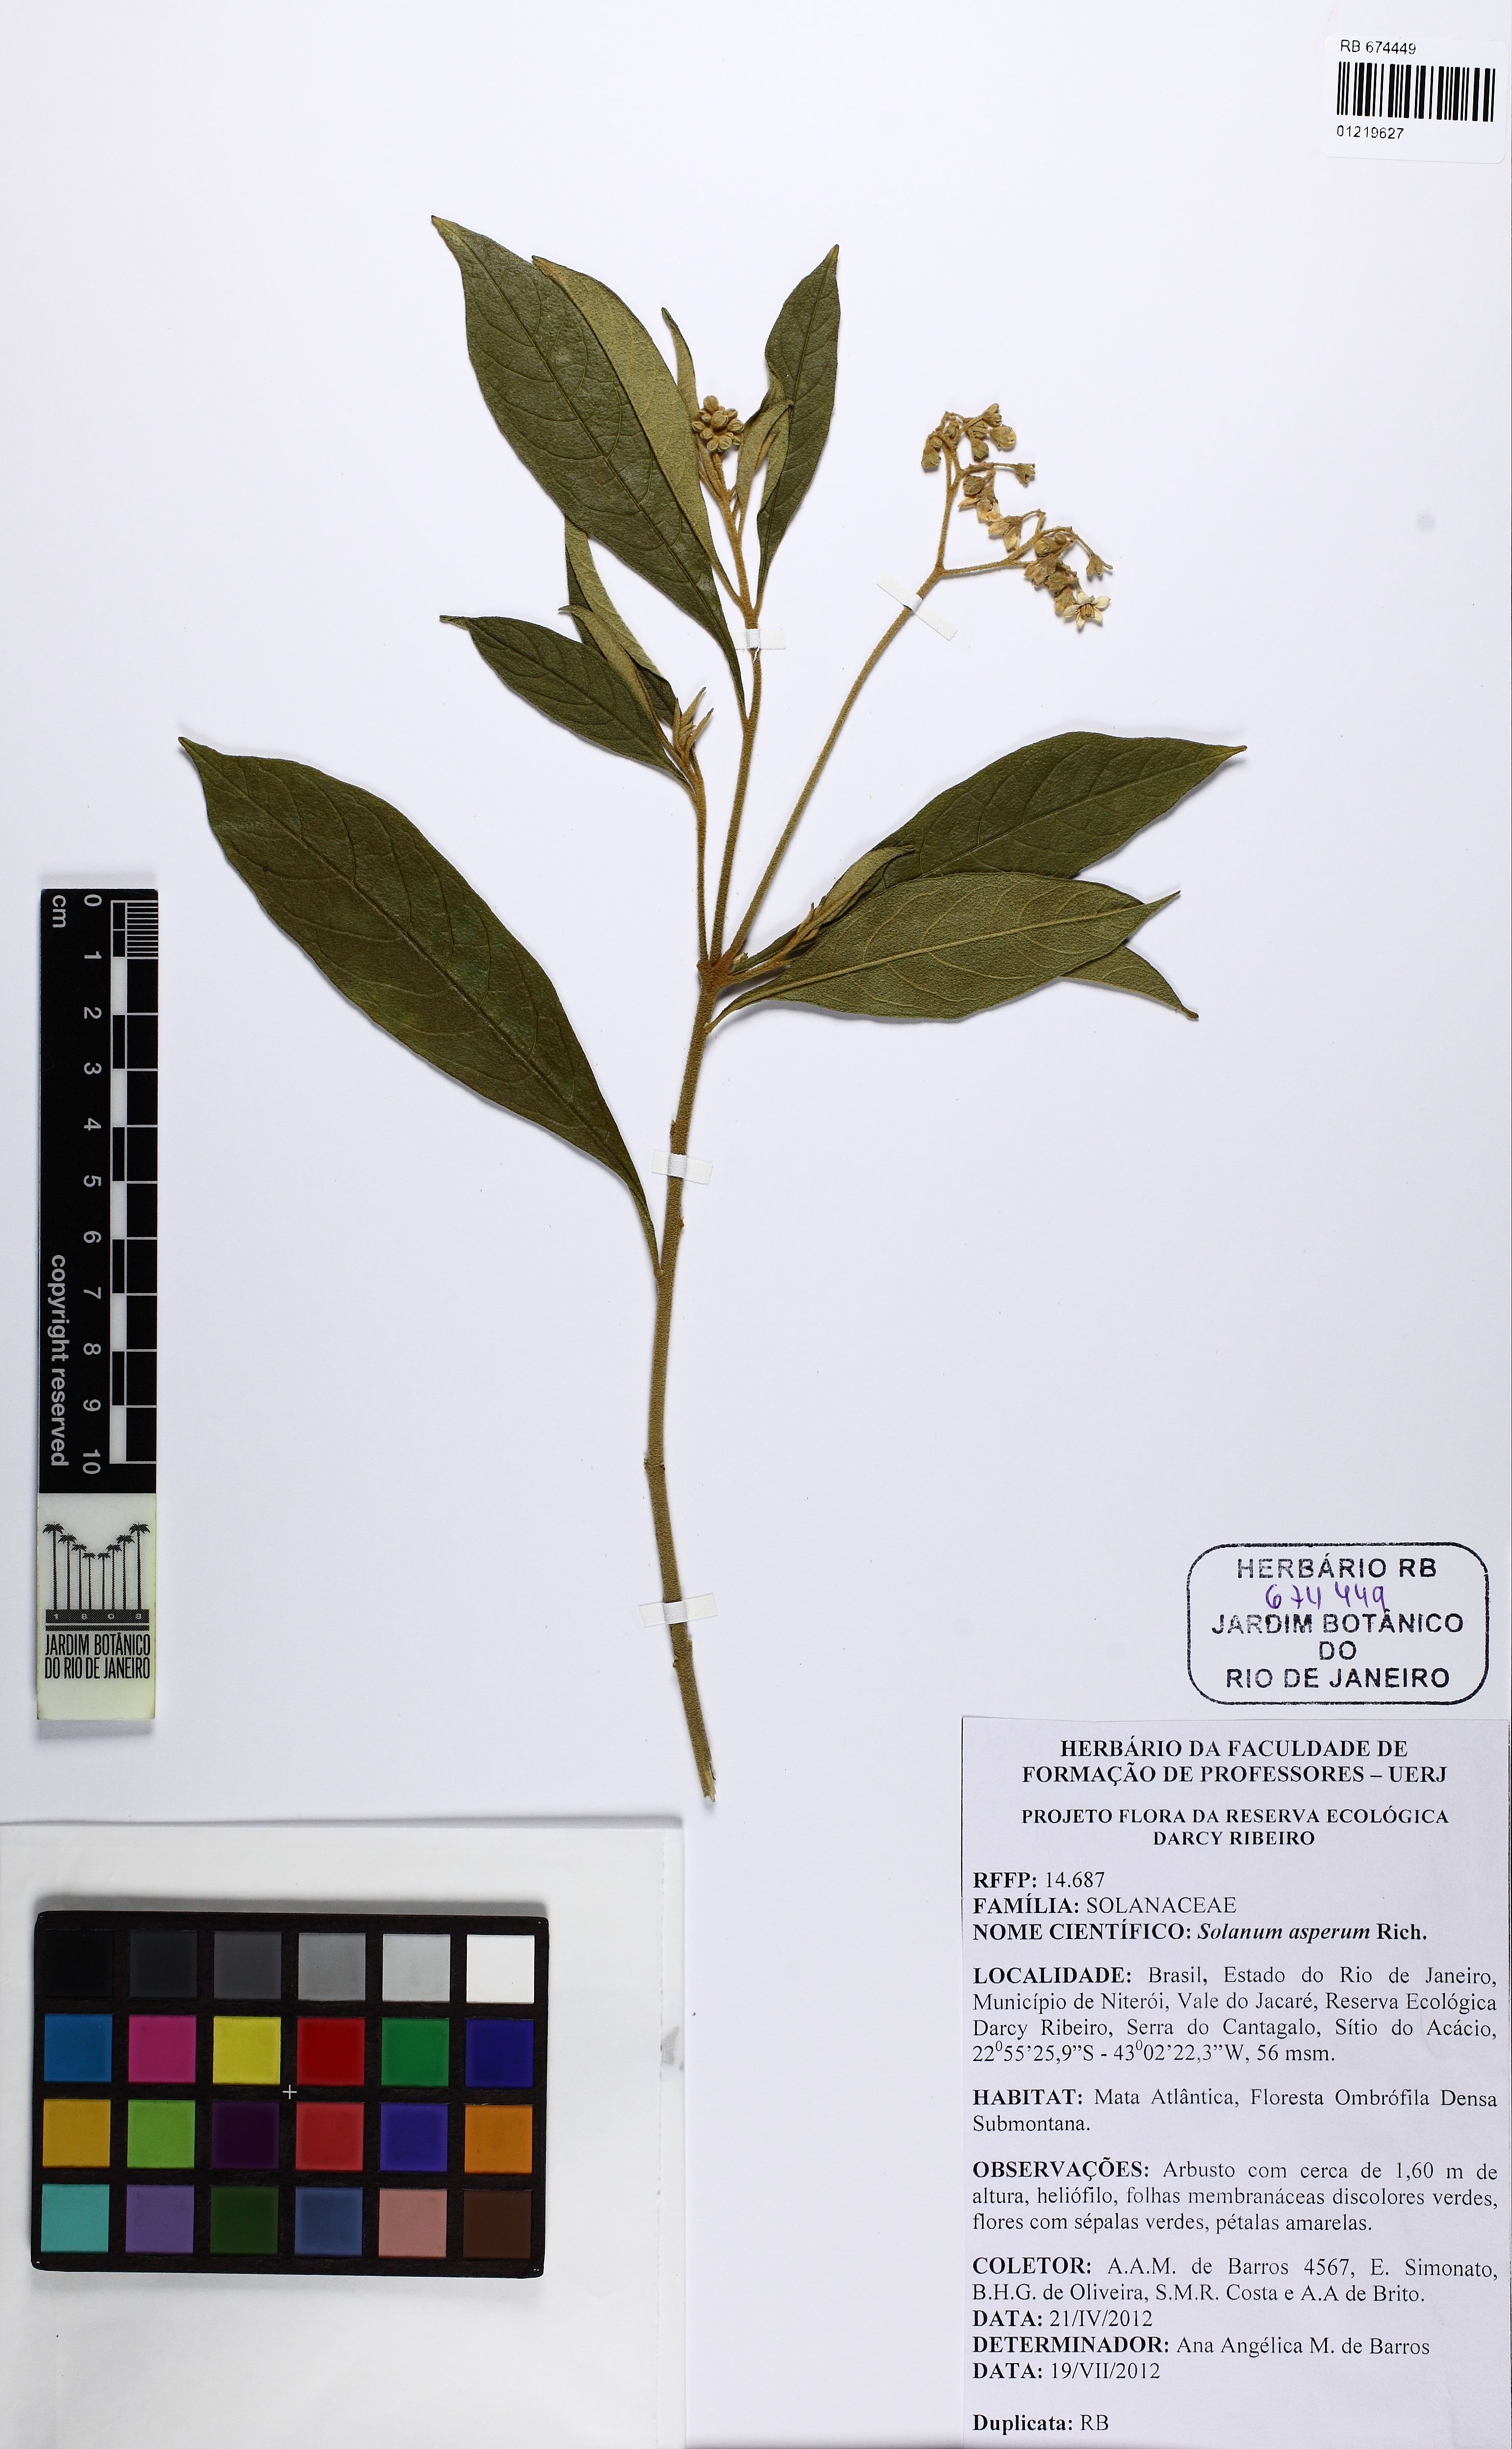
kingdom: Plantae
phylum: Tracheophyta
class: Magnoliopsida
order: Solanales
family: Solanaceae
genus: Solanum
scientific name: Solanum asperum
